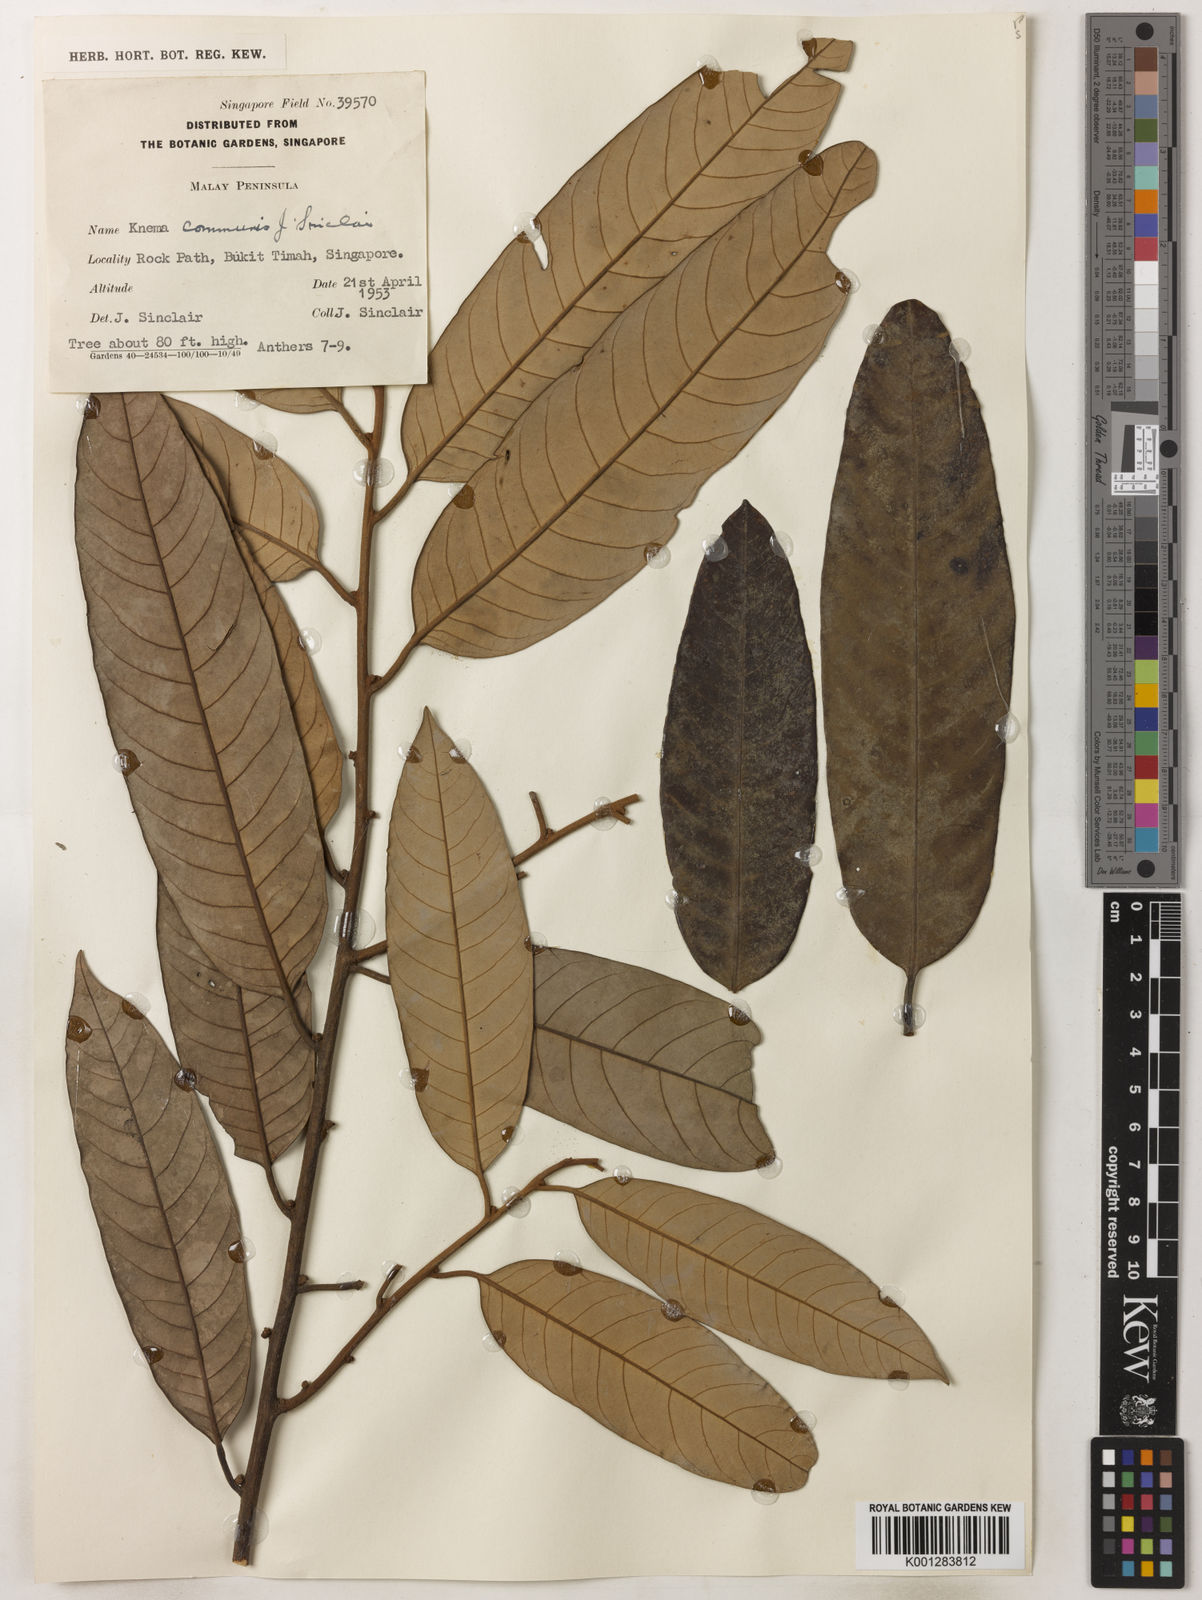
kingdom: Plantae
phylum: Tracheophyta
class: Magnoliopsida
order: Magnoliales
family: Myristicaceae
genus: Knema
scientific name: Knema communis
